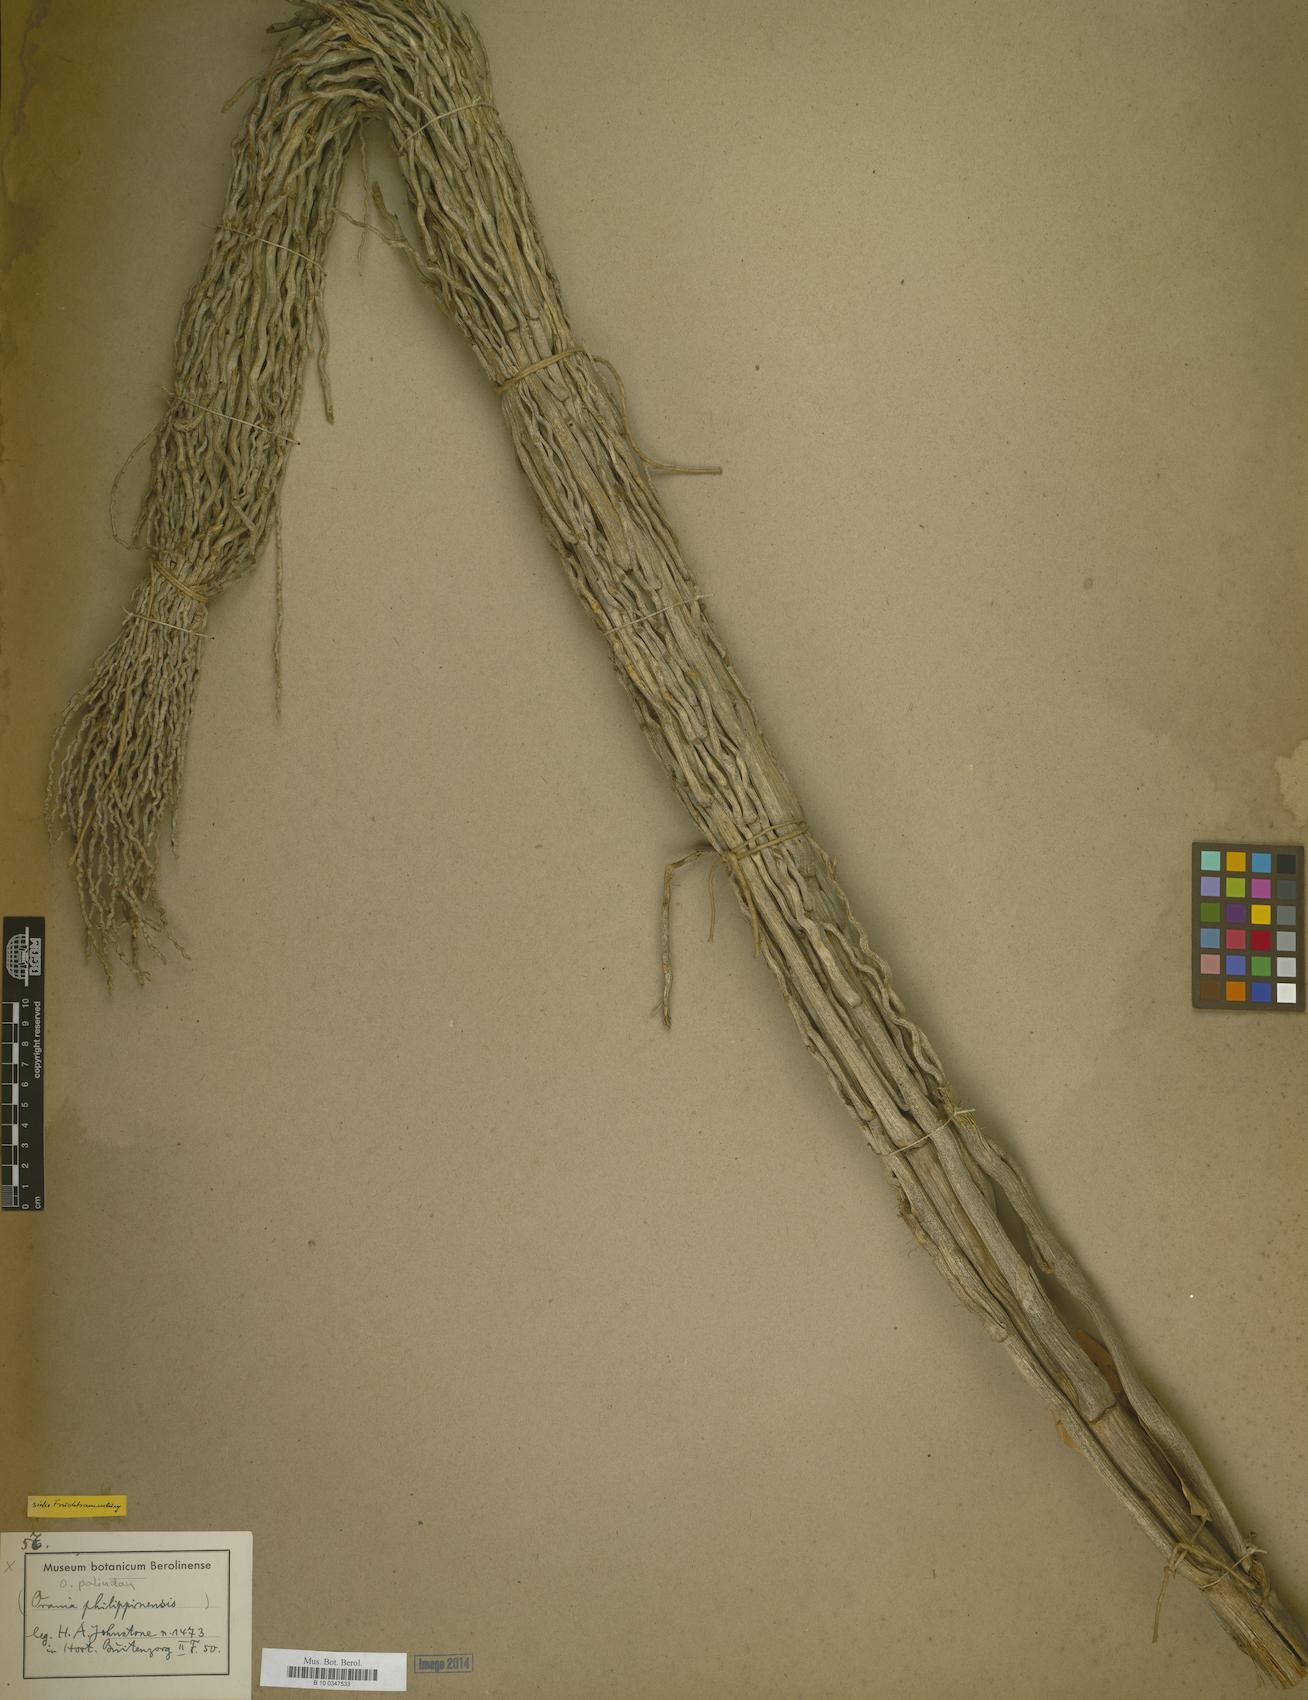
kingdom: Plantae
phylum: Tracheophyta
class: Liliopsida
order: Arecales
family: Arecaceae
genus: Orania
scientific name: Orania
